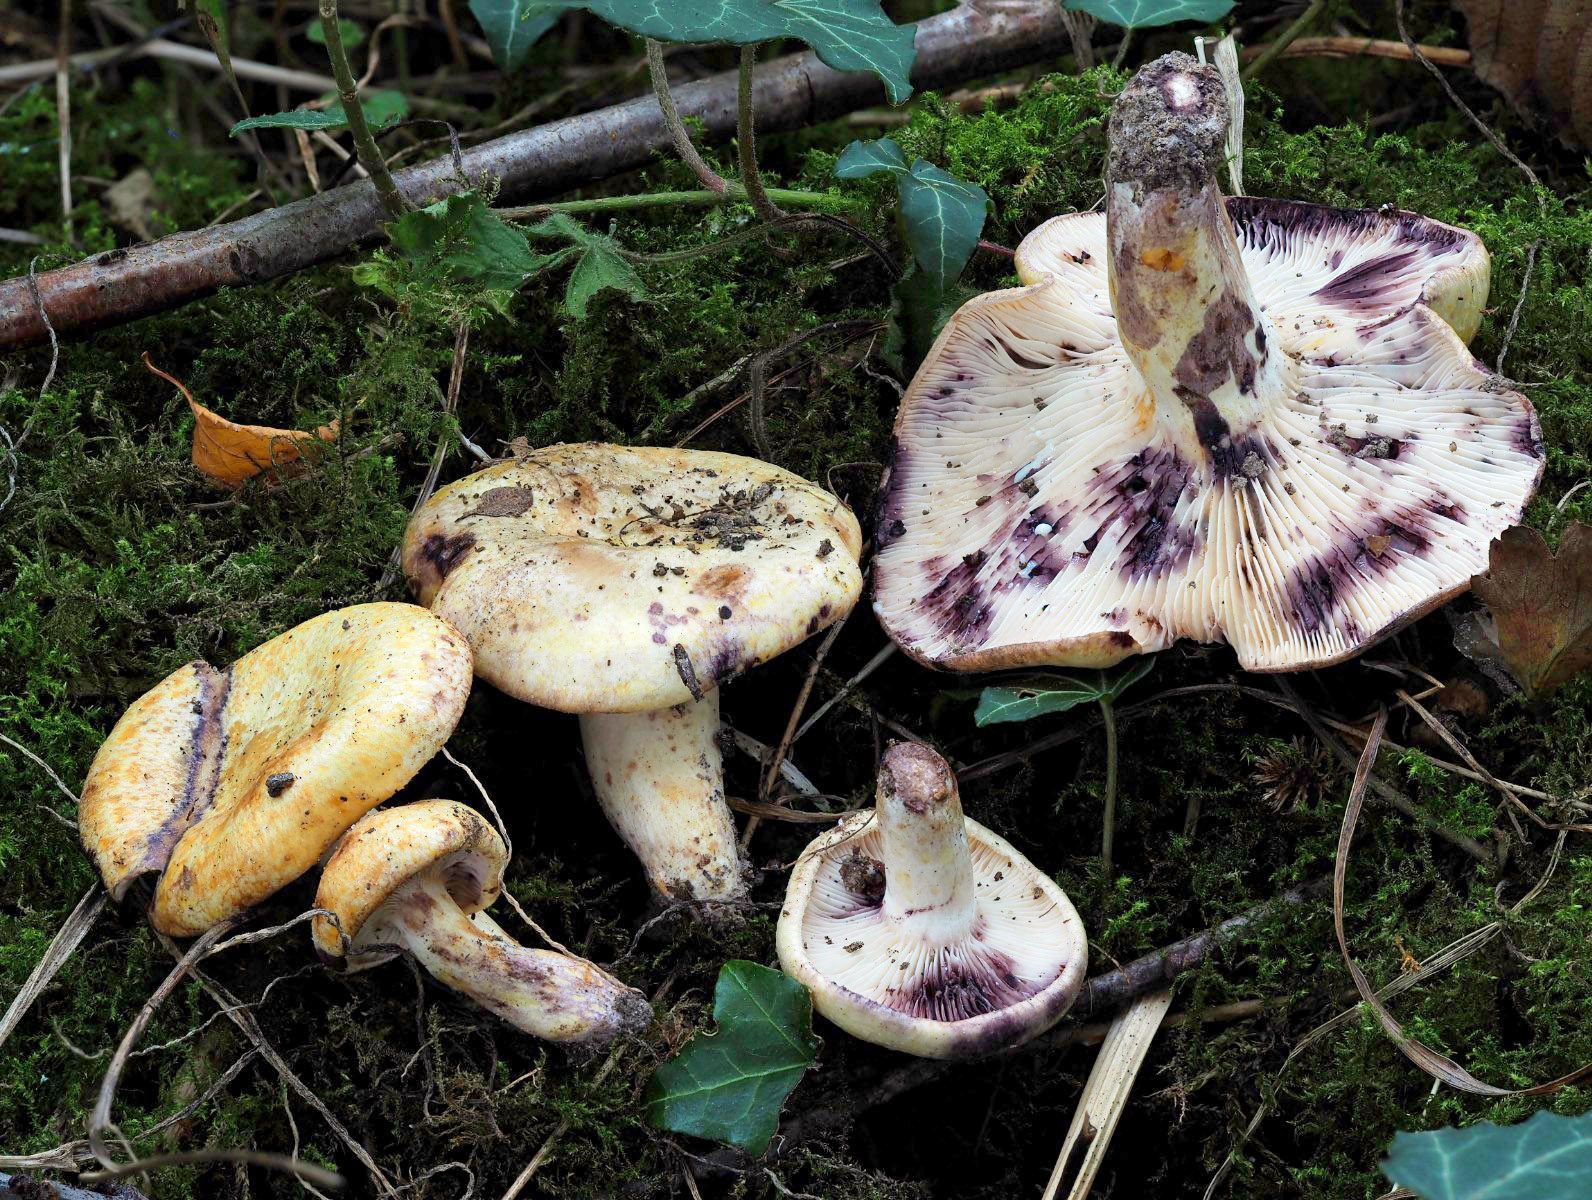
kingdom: Fungi
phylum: Basidiomycota
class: Agaricomycetes
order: Russulales
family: Russulaceae
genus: Lactarius
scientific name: Lactarius flavidus
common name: bleggul mælkehat
